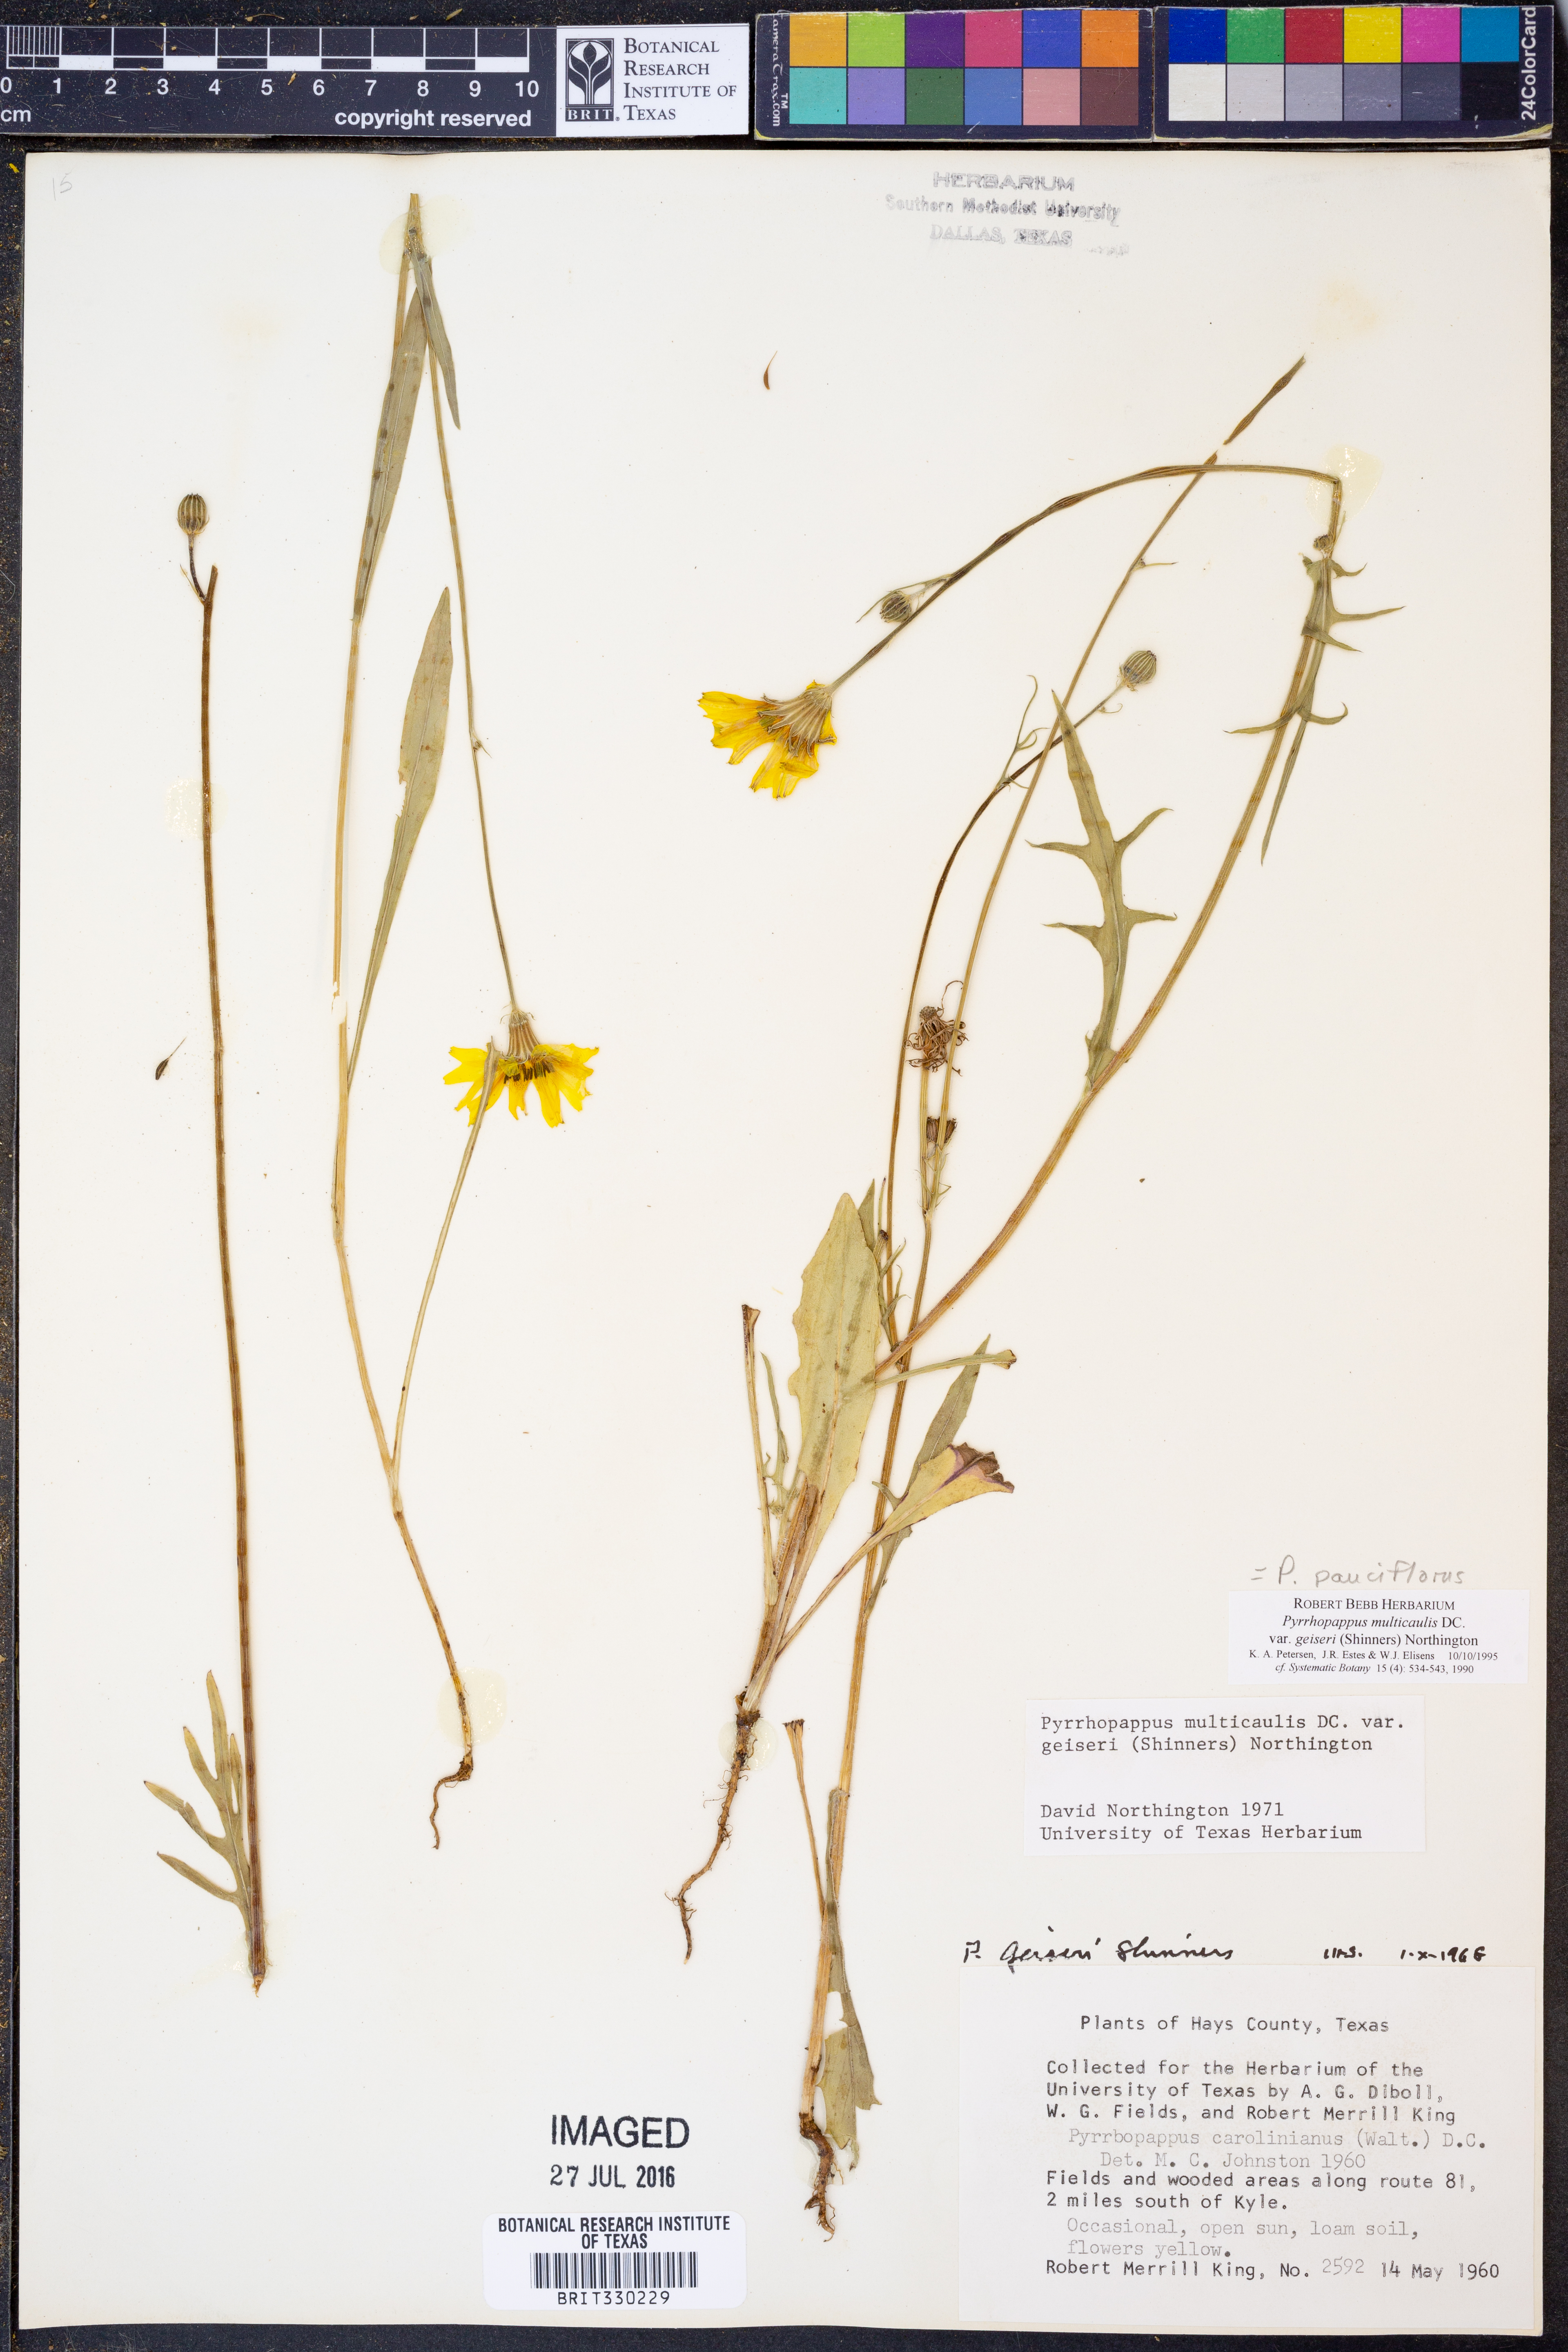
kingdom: Plantae
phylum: Tracheophyta
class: Magnoliopsida
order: Asterales
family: Asteraceae
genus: Pyrrhopappus
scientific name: Pyrrhopappus pauciflorus
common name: Texas false dandelion
